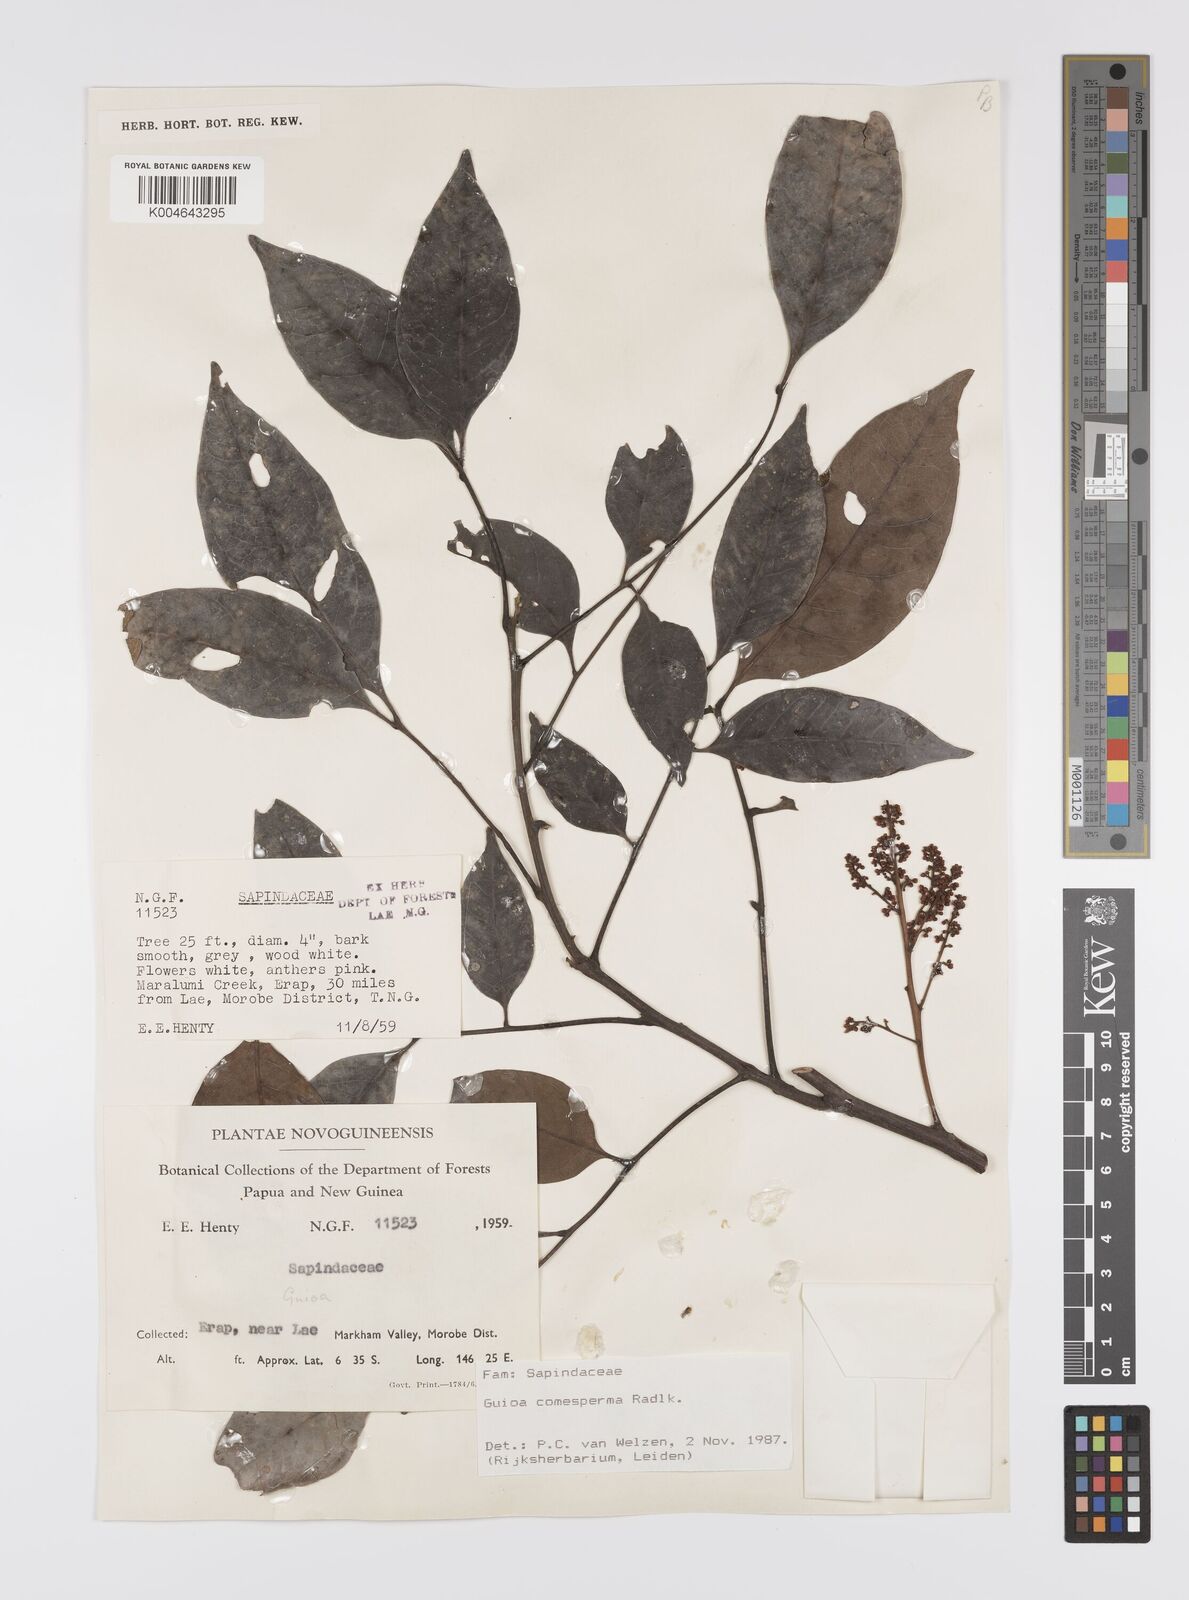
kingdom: Plantae
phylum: Tracheophyta
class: Magnoliopsida
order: Sapindales
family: Sapindaceae
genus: Guioa
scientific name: Guioa comesperma
